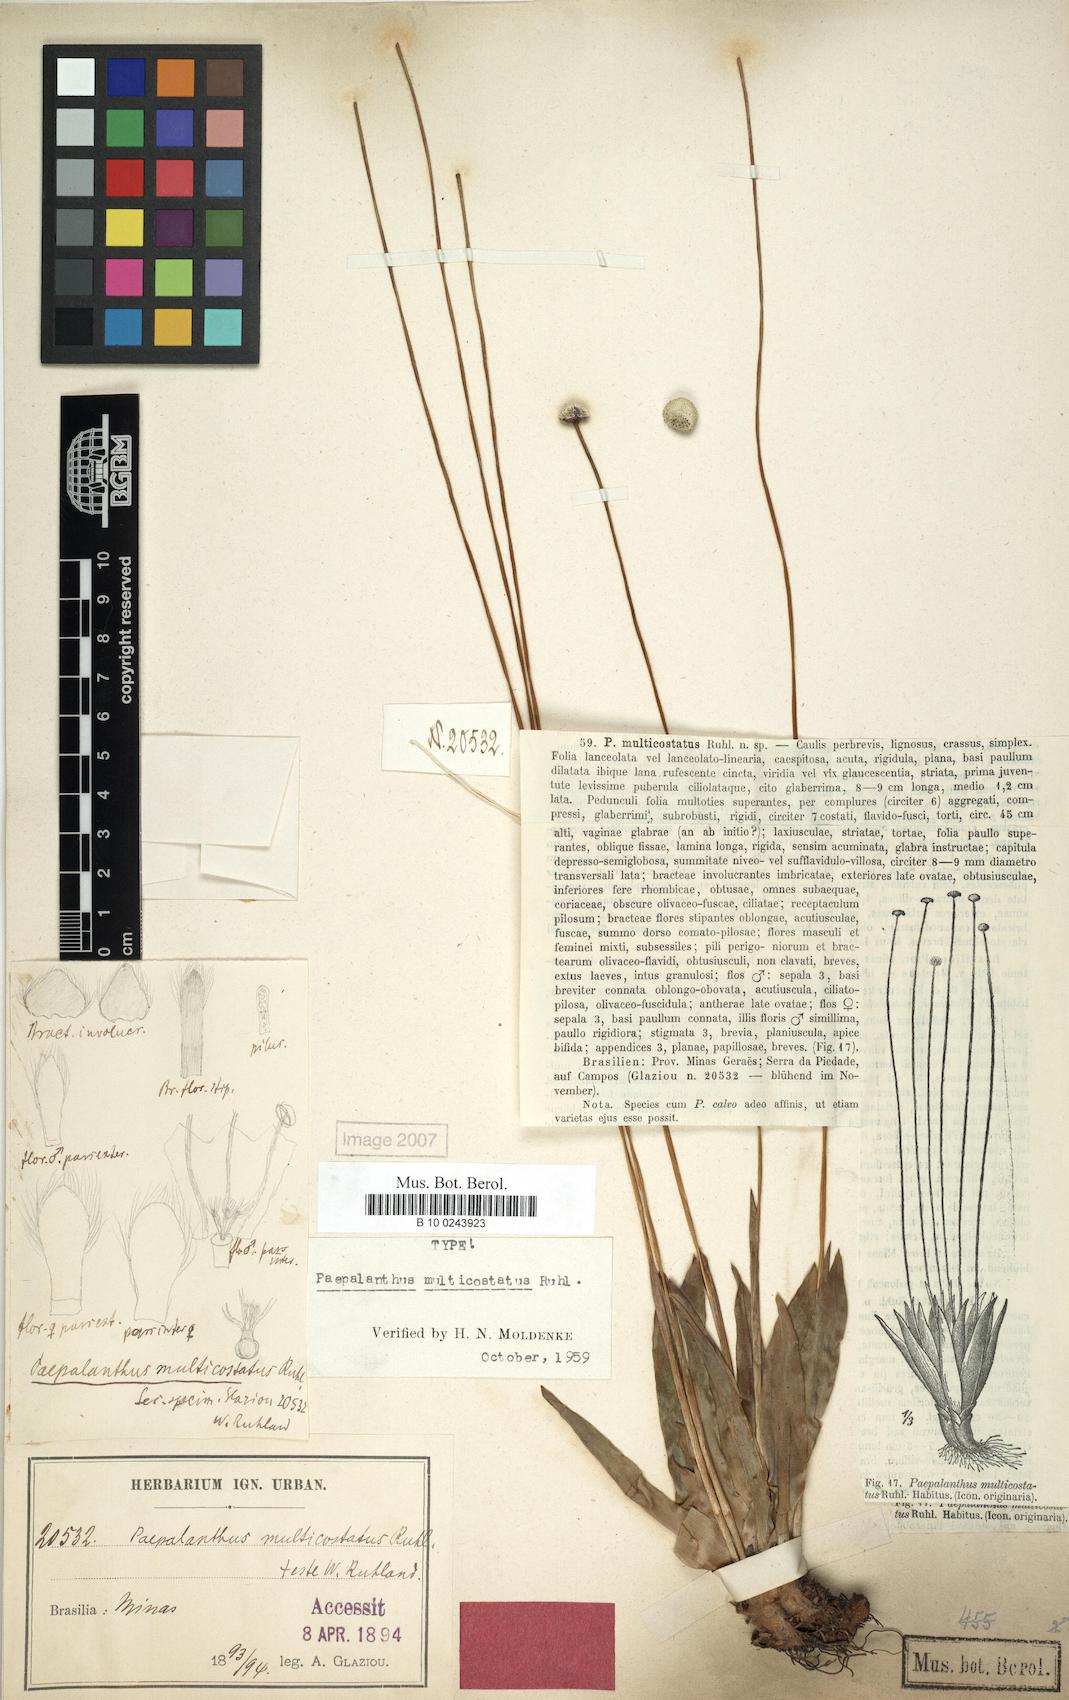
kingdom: Plantae
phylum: Tracheophyta
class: Liliopsida
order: Poales
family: Eriocaulaceae
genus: Paepalanthus
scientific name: Paepalanthus calvus
